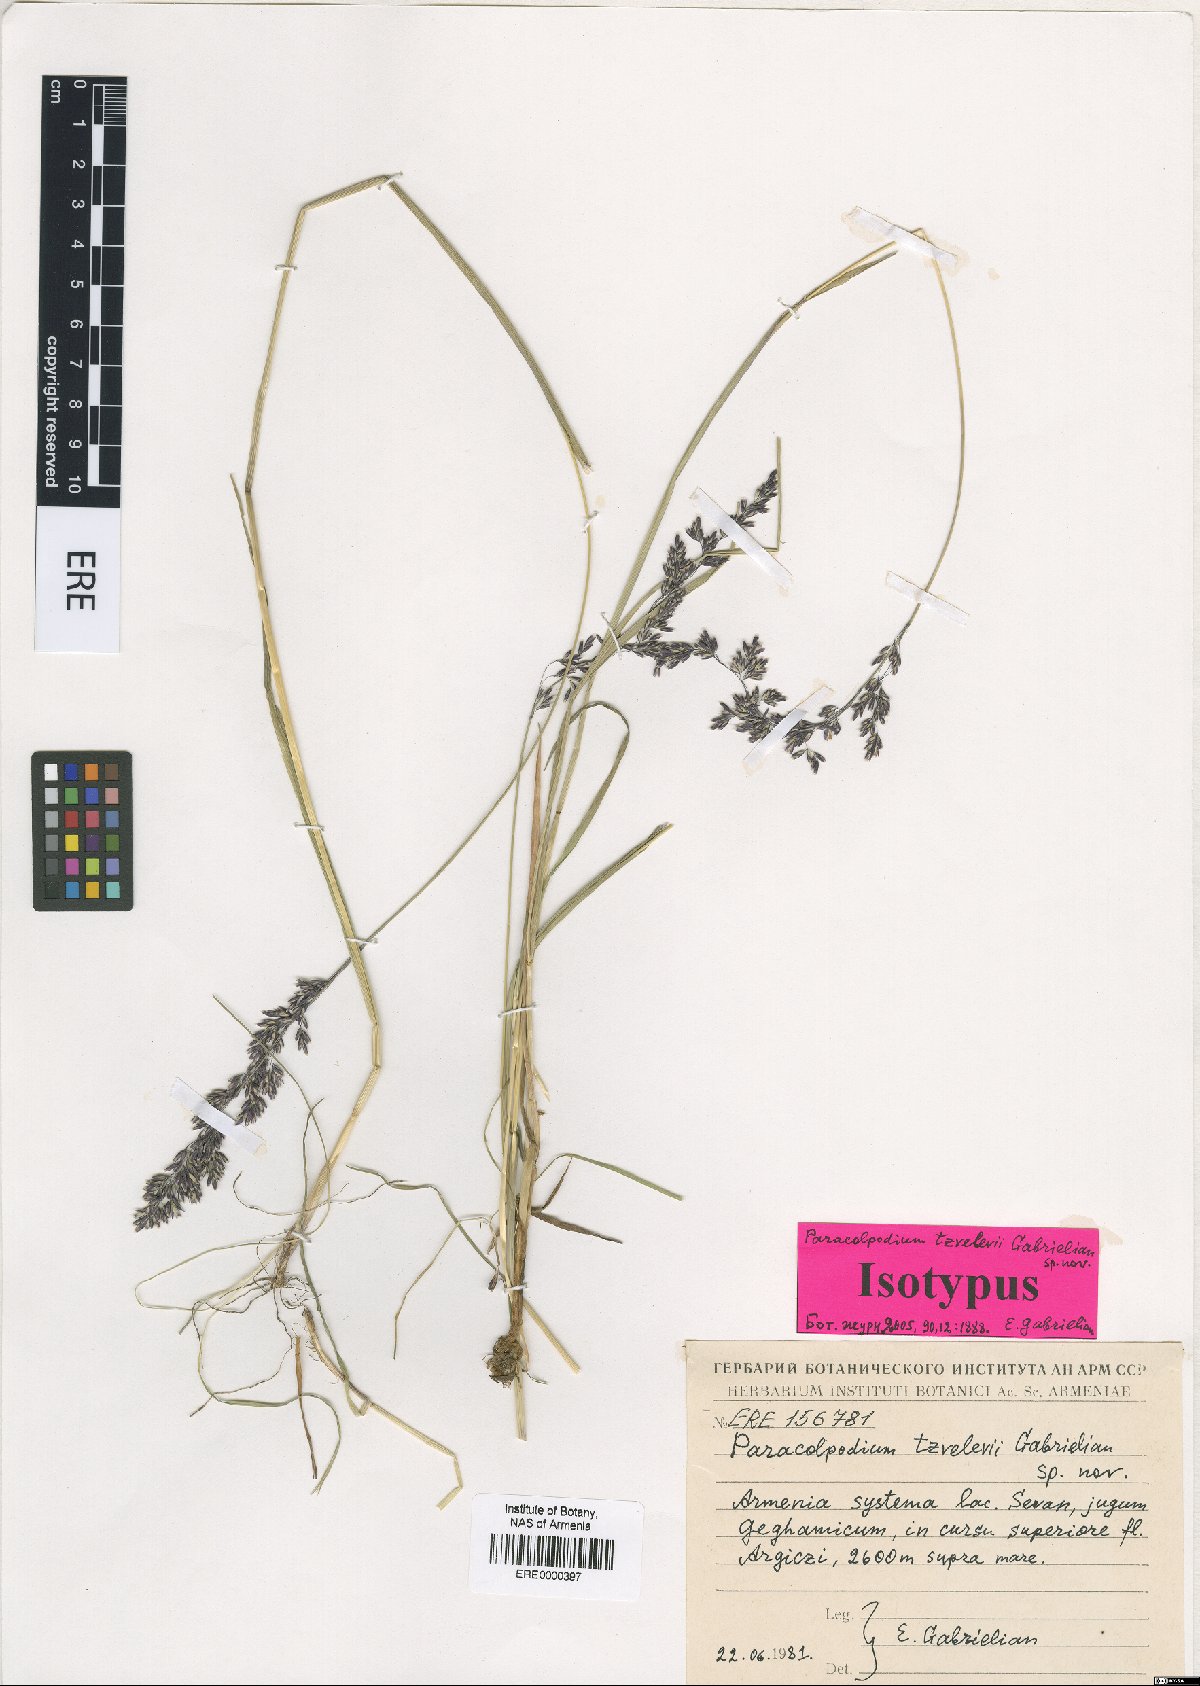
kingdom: Plantae
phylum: Tracheophyta
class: Liliopsida
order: Poales
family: Poaceae
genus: Paracolpodium
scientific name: Paracolpodium tzvelevii
